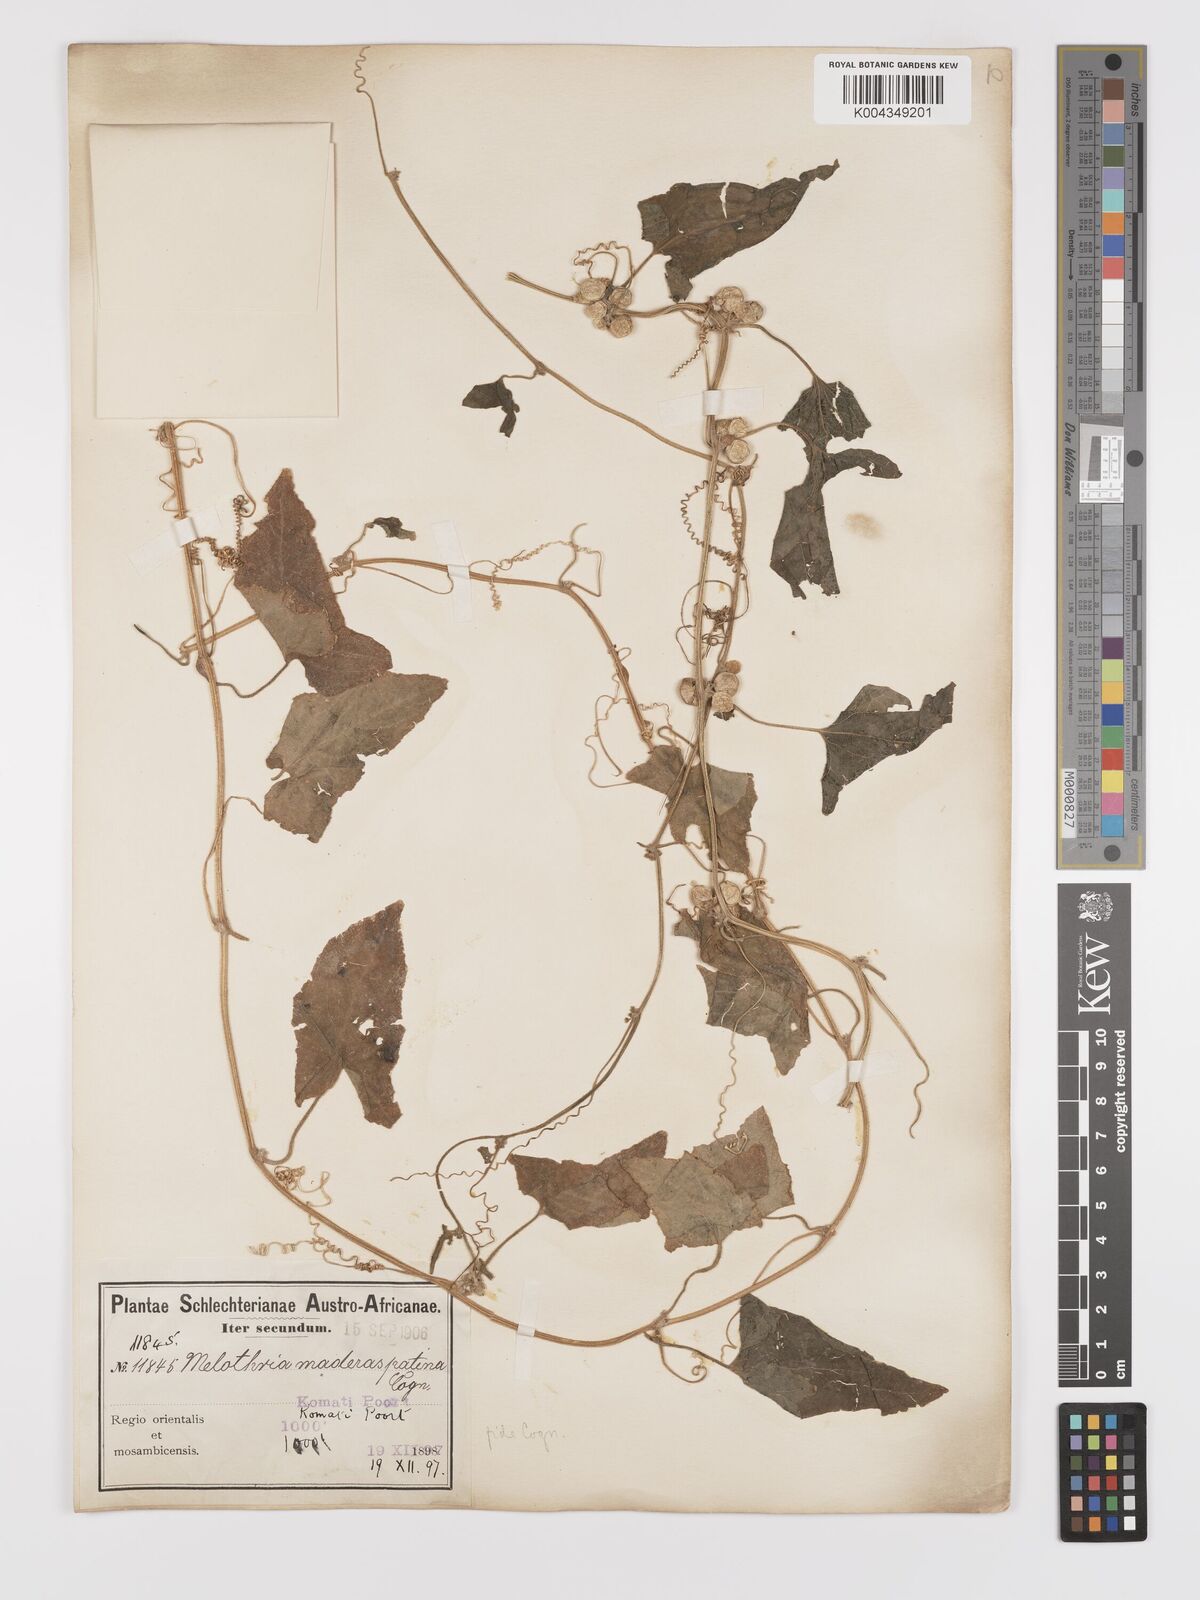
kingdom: Plantae
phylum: Tracheophyta
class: Magnoliopsida
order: Cucurbitales
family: Cucurbitaceae
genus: Cucumis
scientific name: Cucumis maderaspatanus
